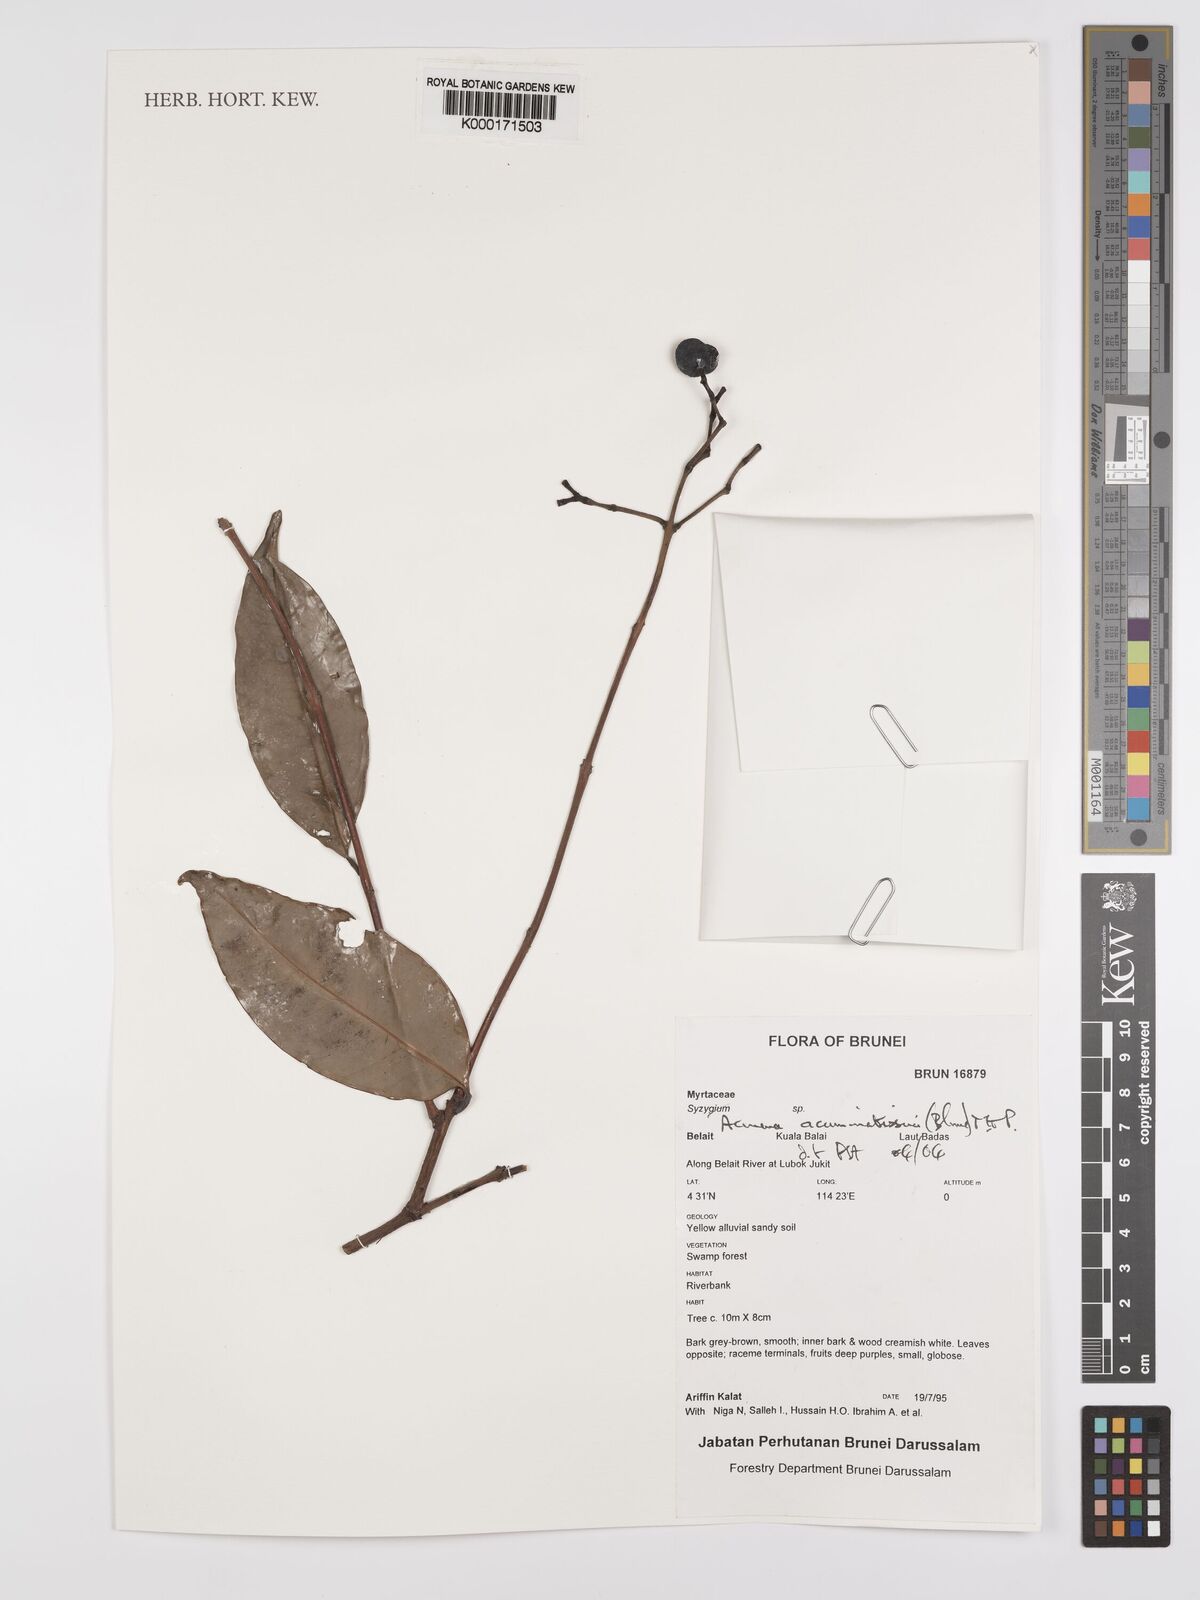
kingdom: Plantae
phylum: Tracheophyta
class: Magnoliopsida
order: Myrtales
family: Myrtaceae
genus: Syzygium
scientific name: Syzygium acuminatissimum
